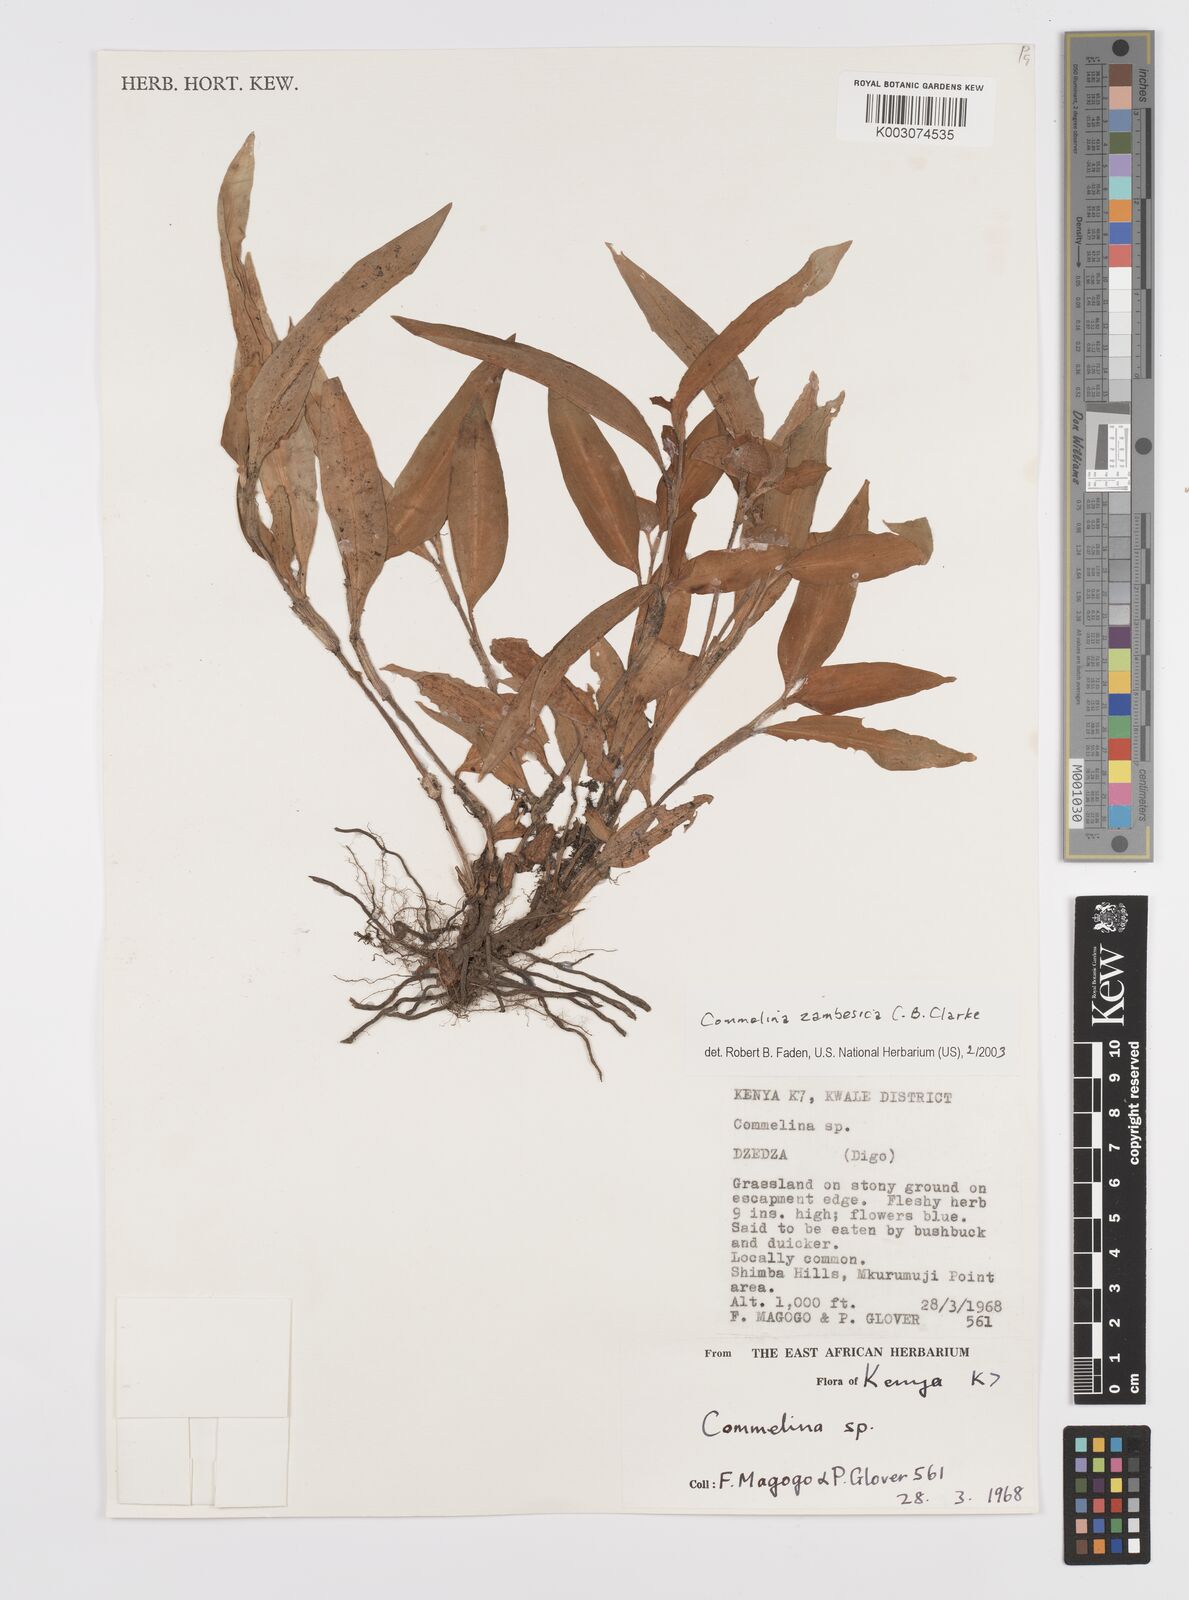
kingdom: Plantae
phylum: Tracheophyta
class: Liliopsida
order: Commelinales
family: Commelinaceae
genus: Commelina
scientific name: Commelina zambesica
